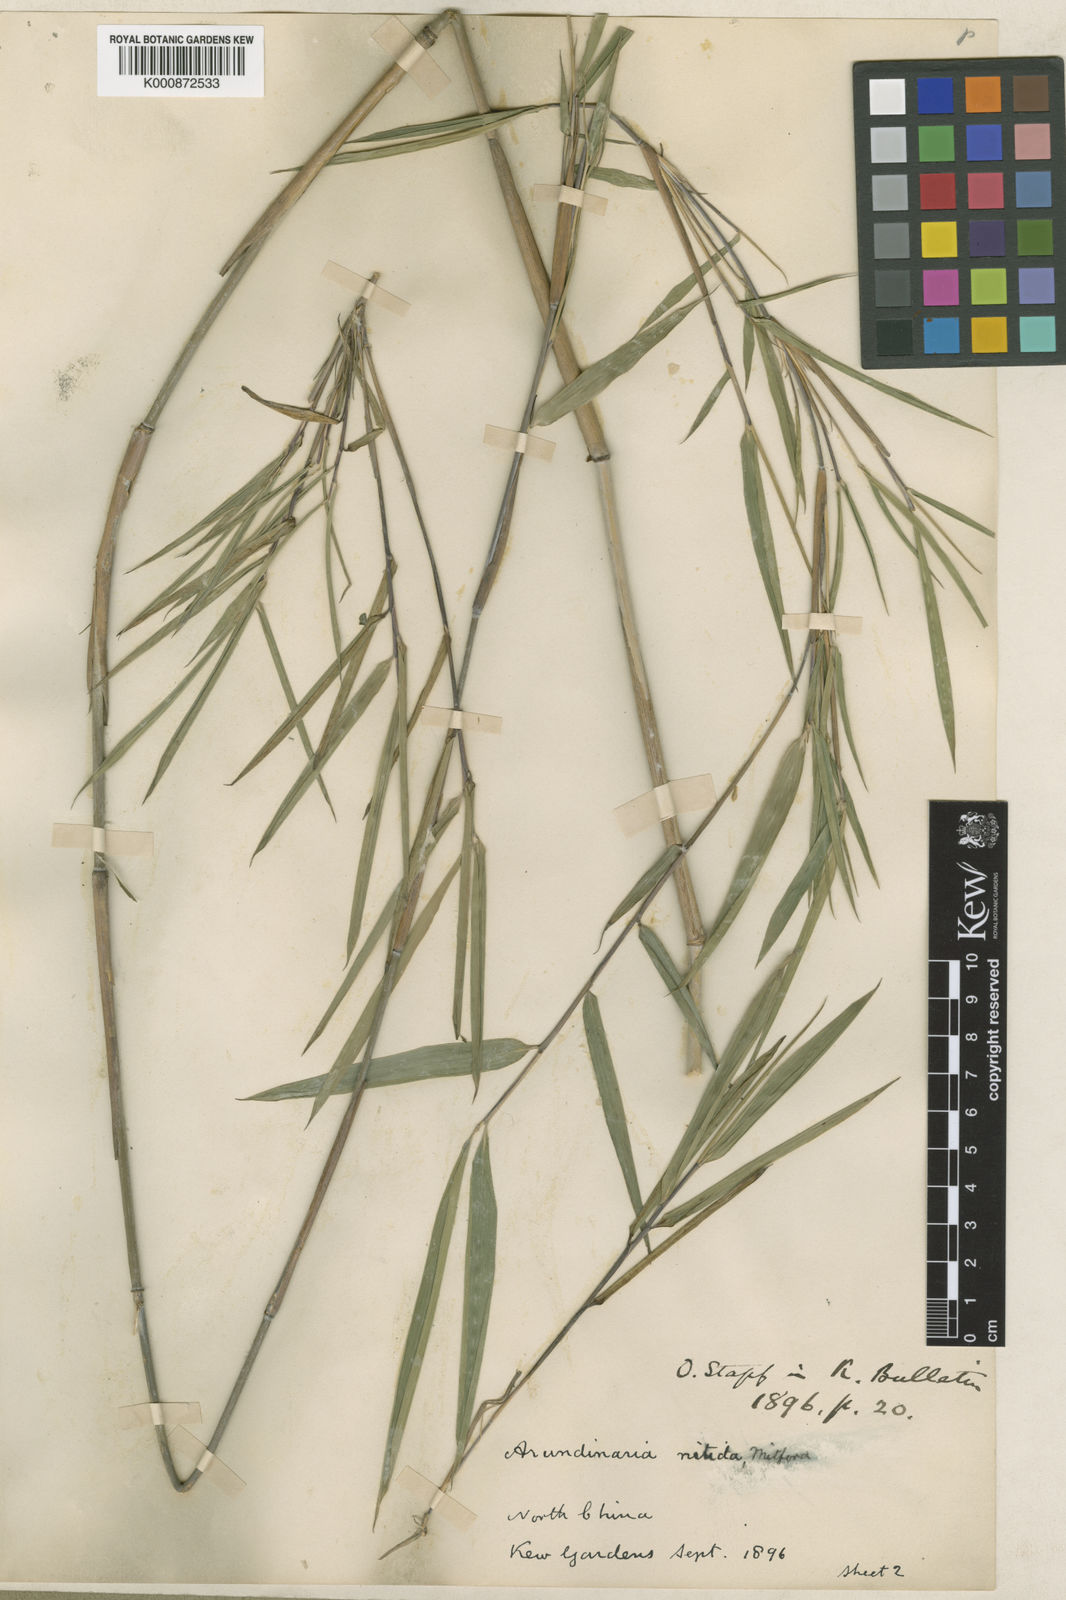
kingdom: Plantae
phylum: Tracheophyta
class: Liliopsida
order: Poales
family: Poaceae
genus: Fargesia
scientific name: Fargesia nitida ex
